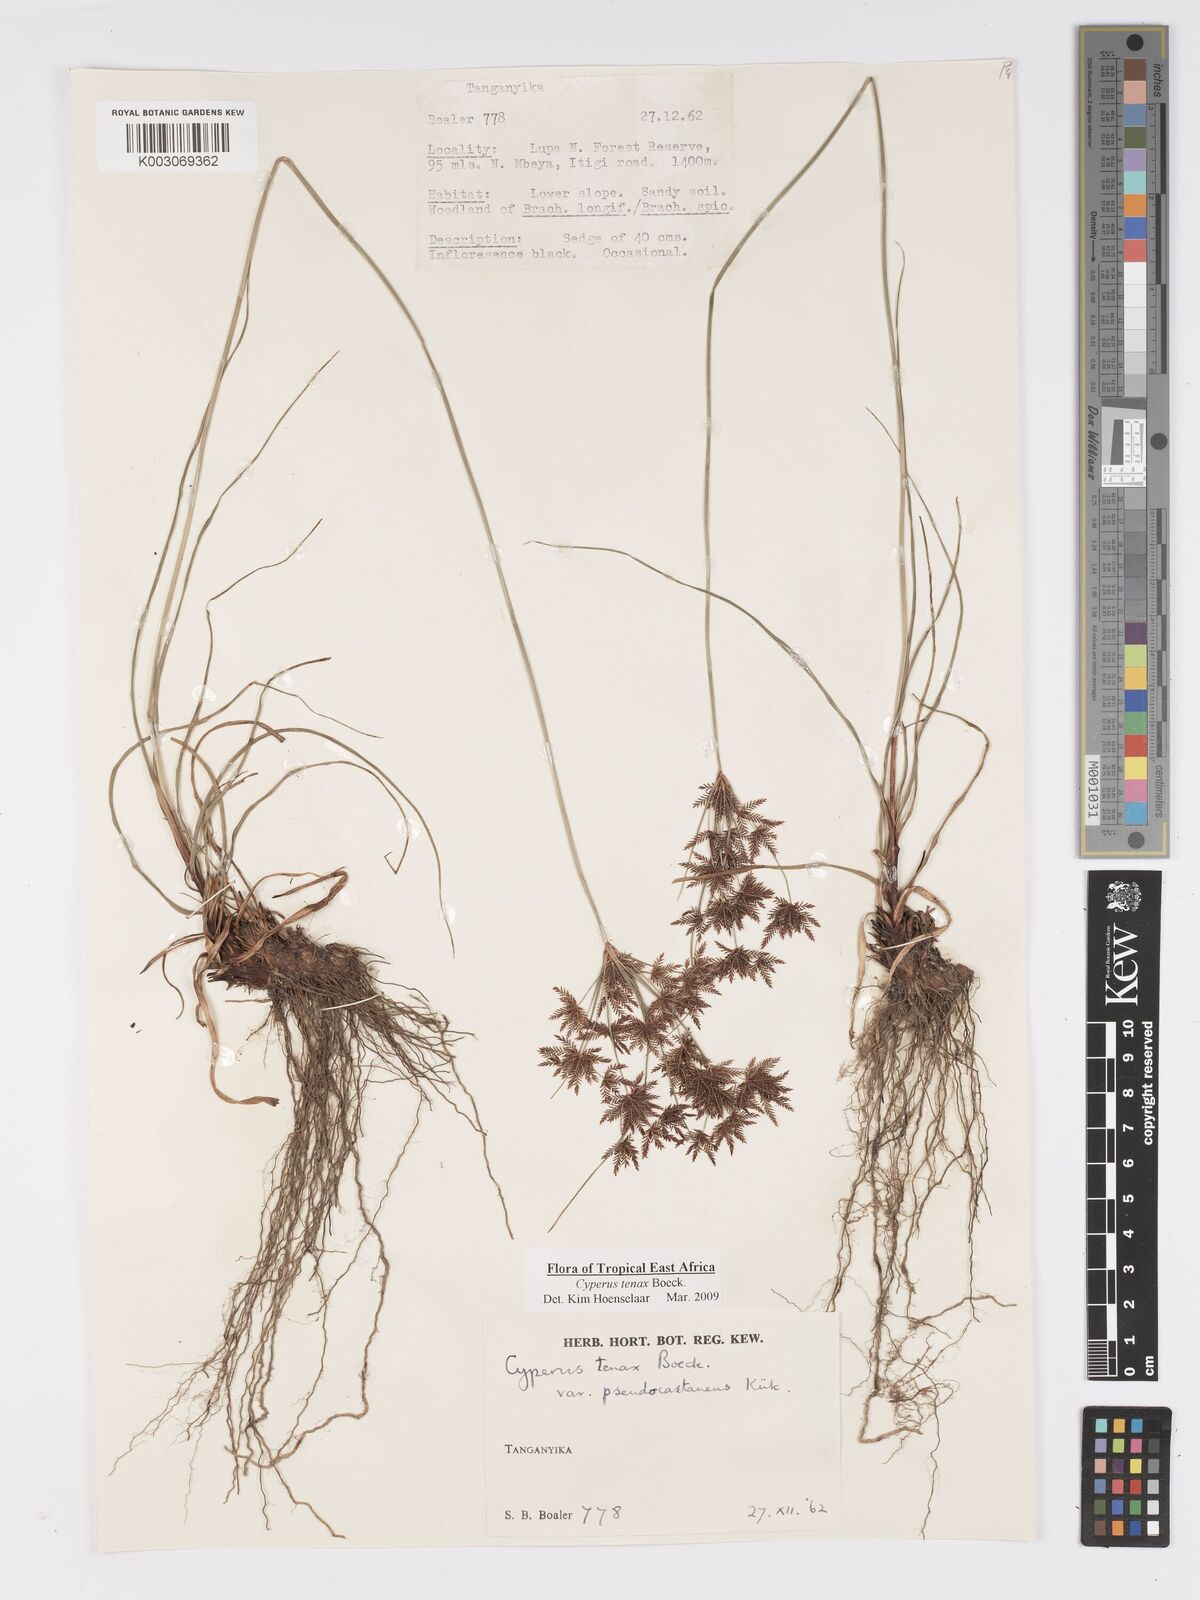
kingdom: Plantae
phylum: Tracheophyta
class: Liliopsida
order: Poales
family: Cyperaceae
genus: Cyperus
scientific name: Cyperus tenax
